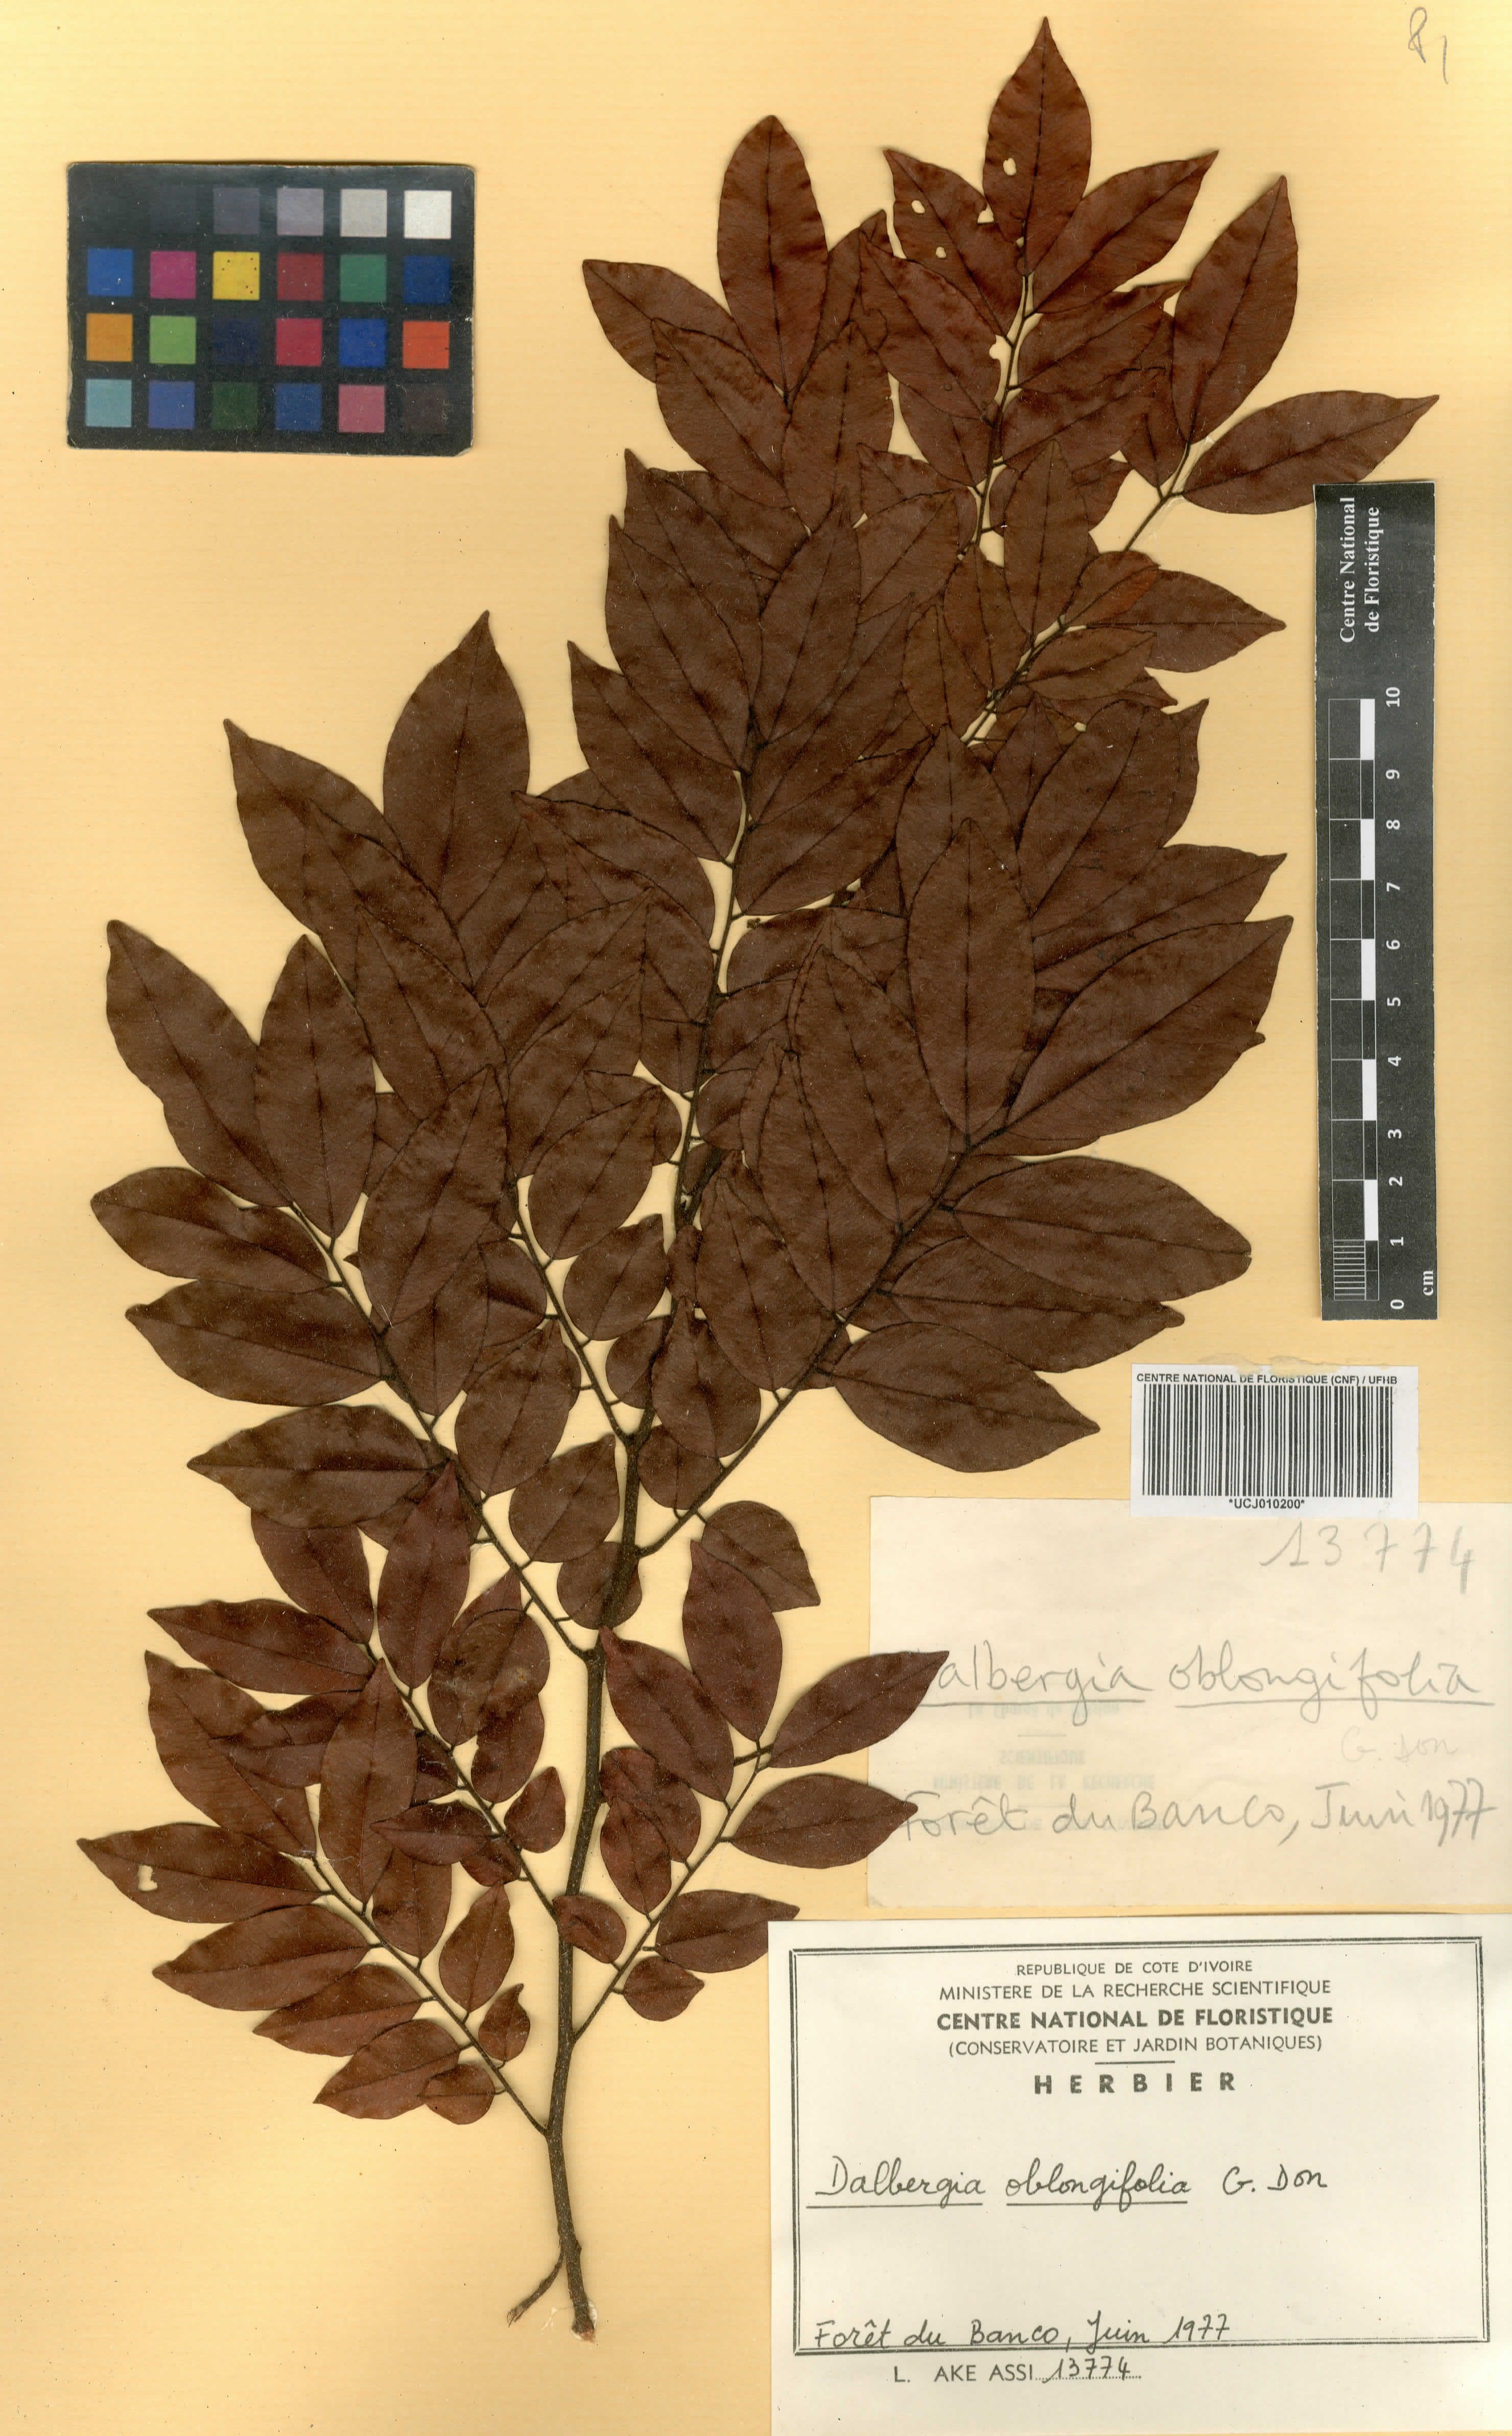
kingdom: Plantae
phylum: Tracheophyta
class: Magnoliopsida
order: Fabales
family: Fabaceae
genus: Dalbergia
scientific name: Dalbergia oblongifolia
